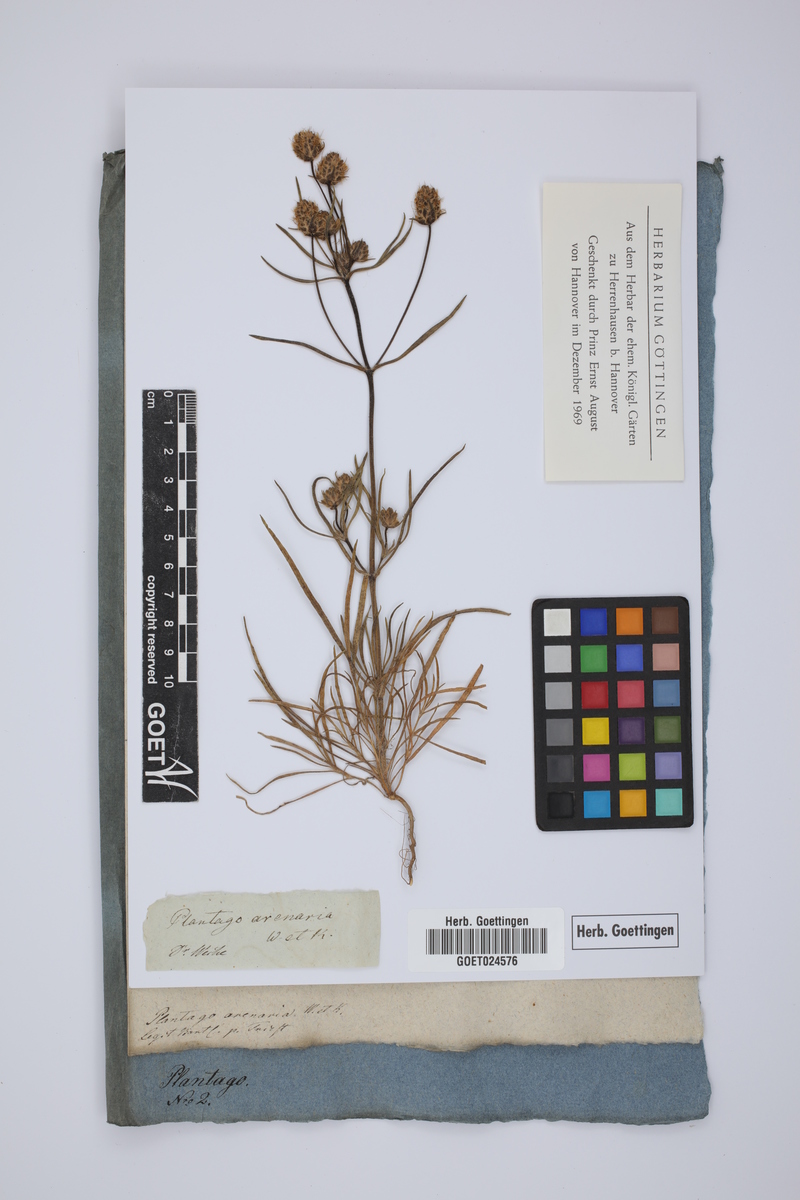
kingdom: Plantae
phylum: Tracheophyta
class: Magnoliopsida
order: Lamiales
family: Plantaginaceae
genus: Plantago
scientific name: Plantago arenaria
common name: Branched plantain
